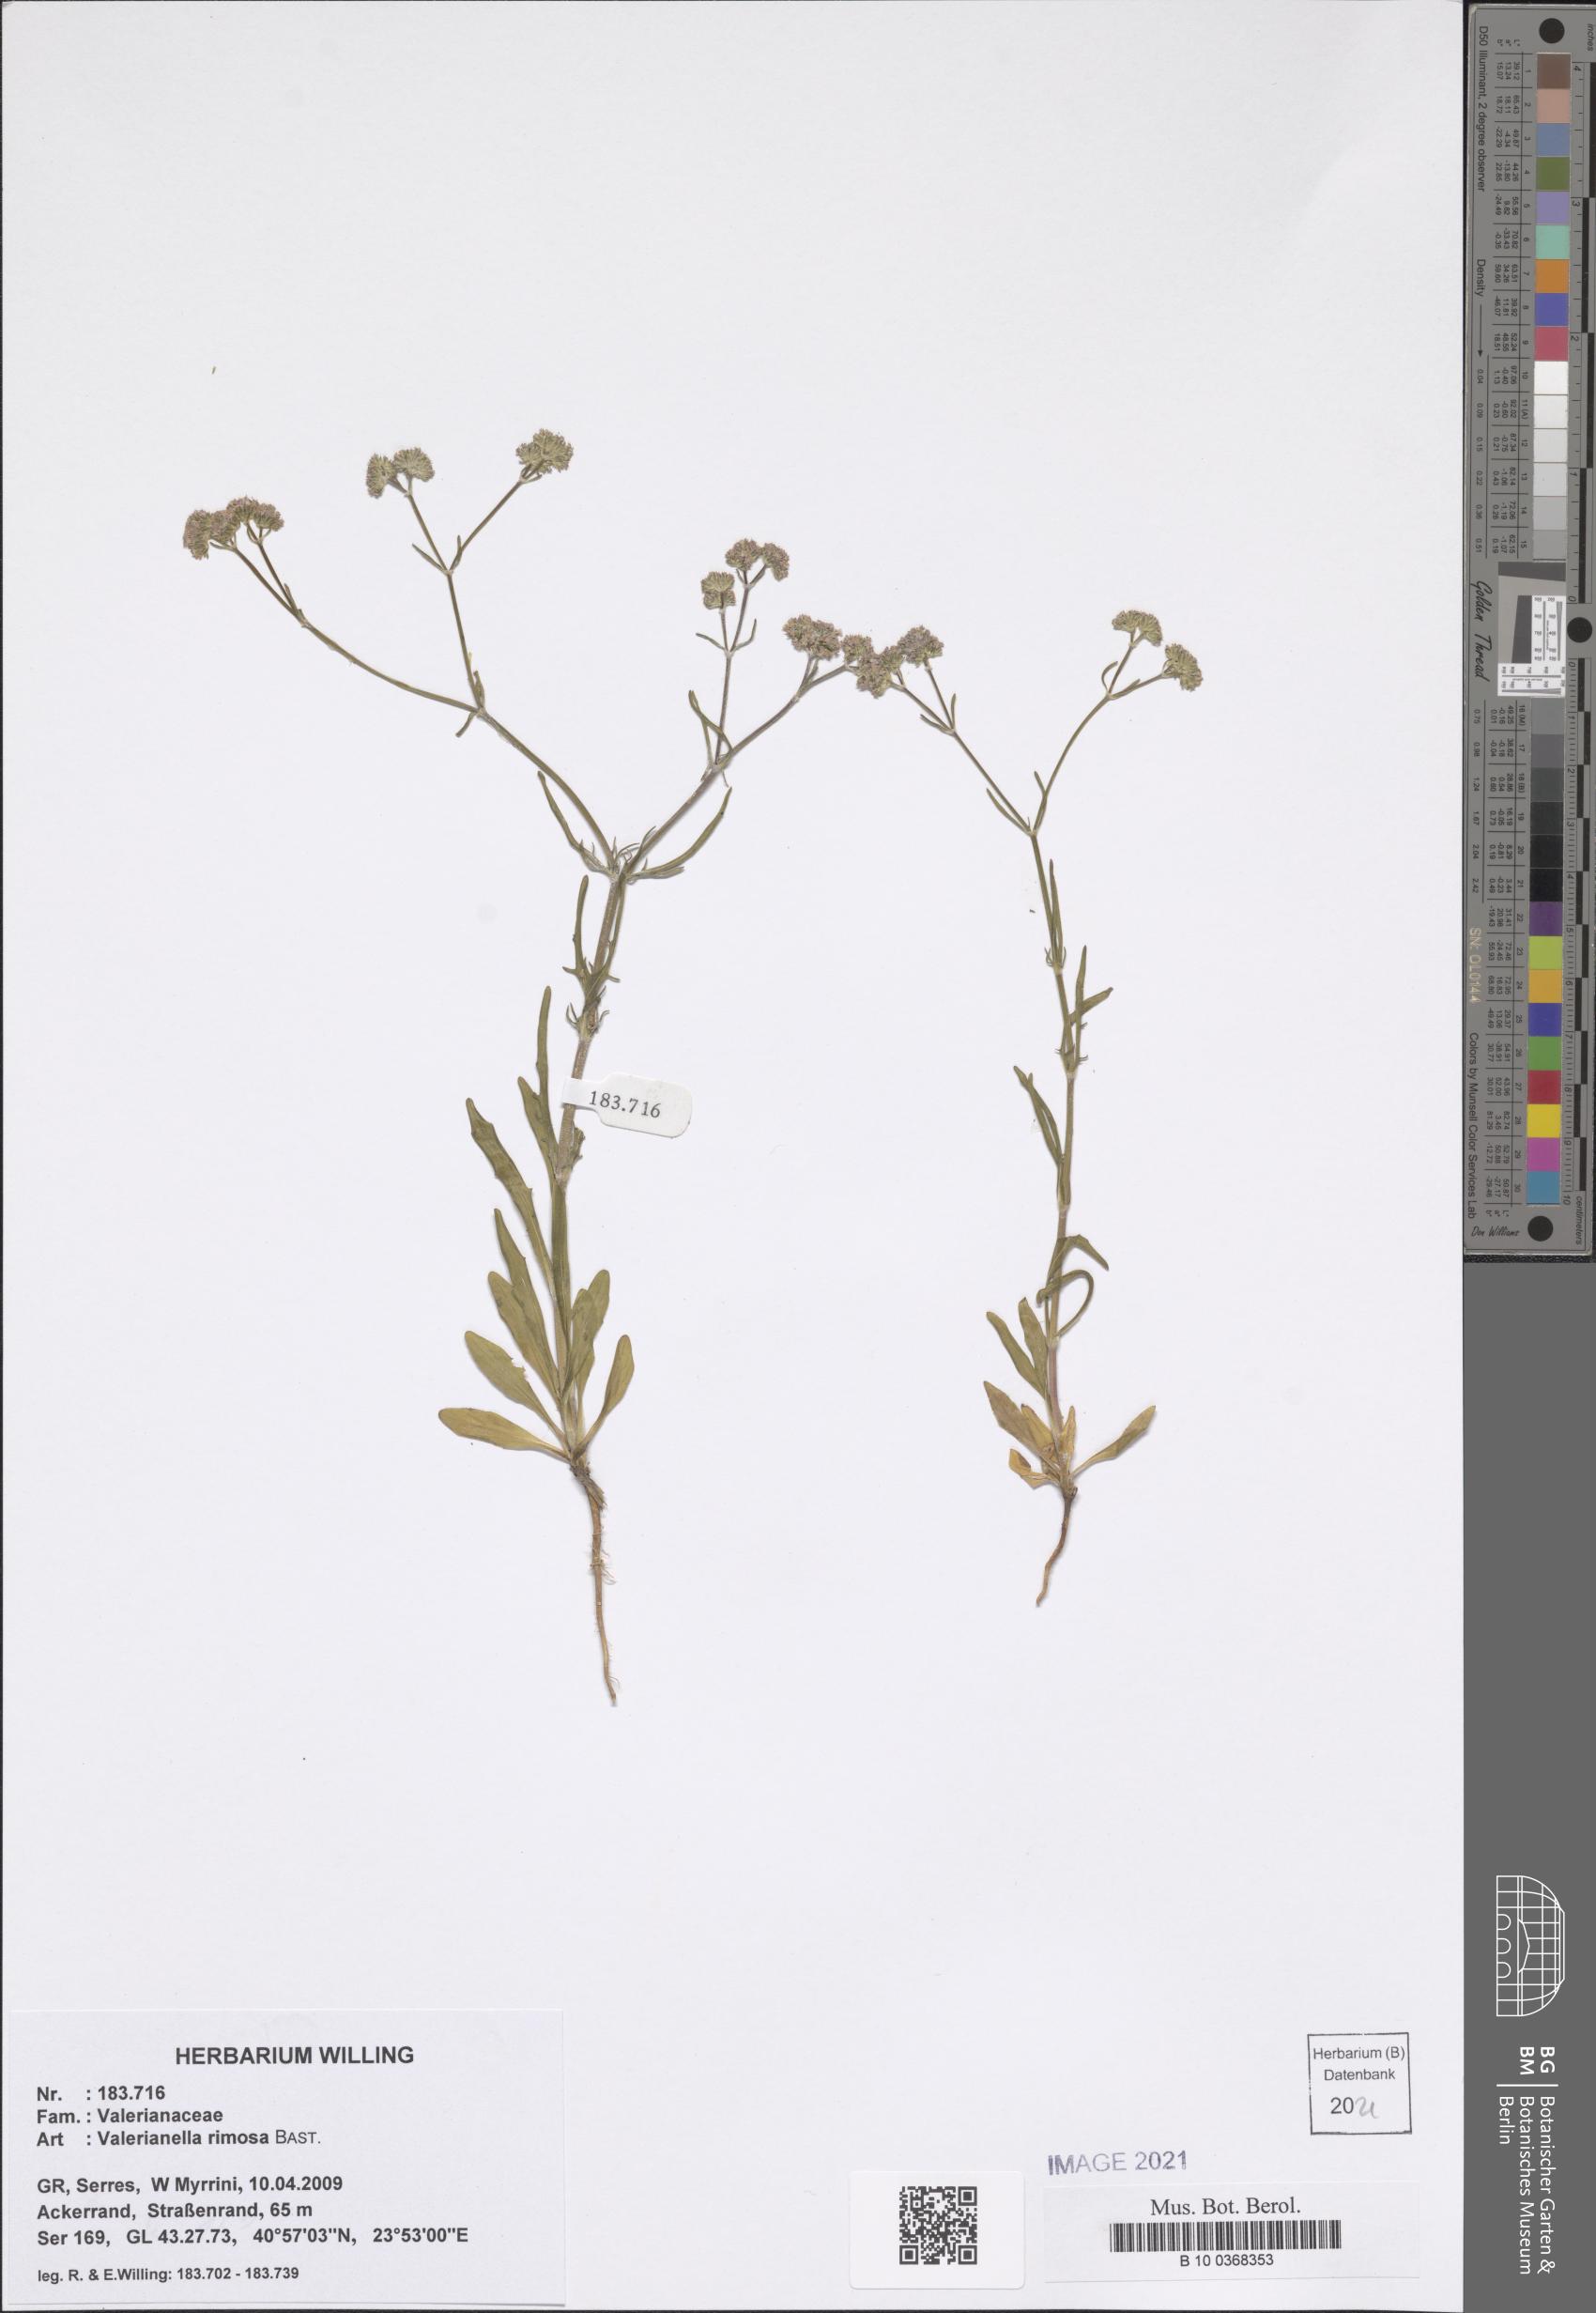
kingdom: Plantae
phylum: Tracheophyta
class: Magnoliopsida
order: Dipsacales
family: Caprifoliaceae
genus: Valerianella
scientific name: Valerianella rimosa
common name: Broad-fruited cornsalad
